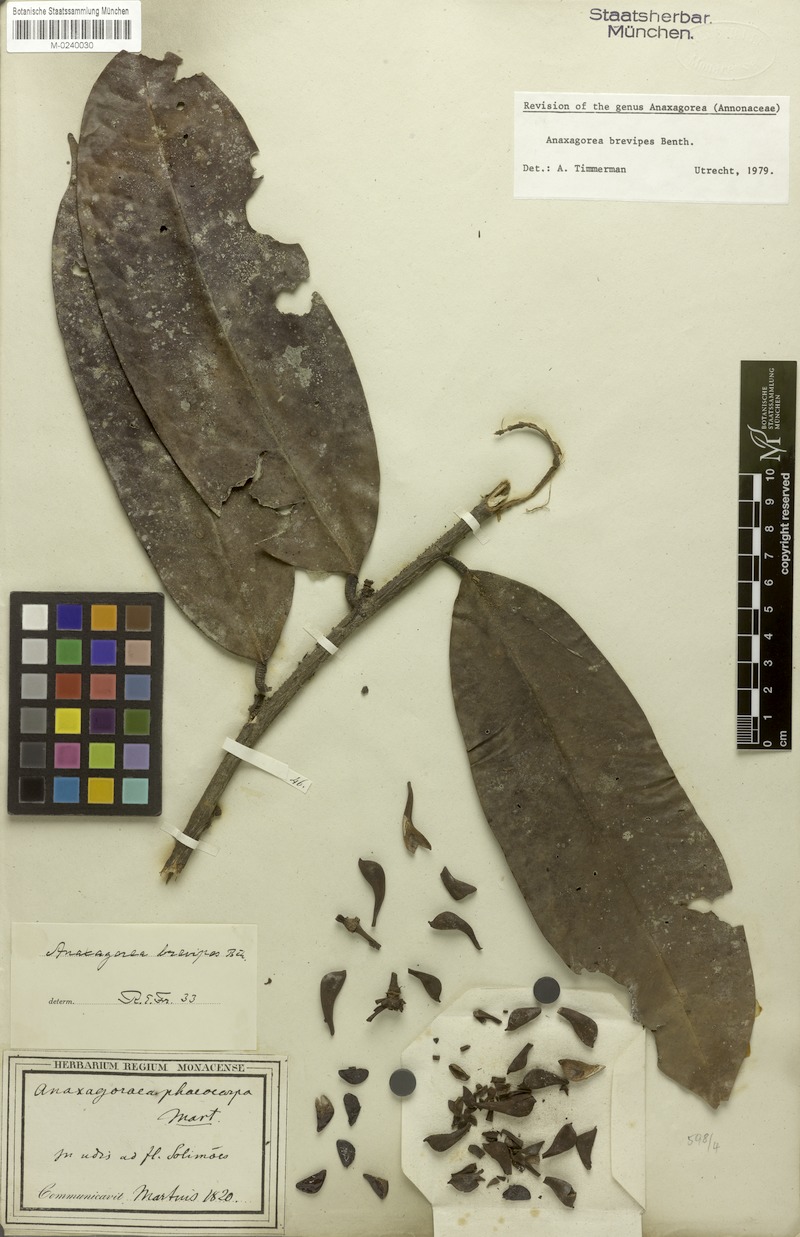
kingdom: Plantae
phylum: Tracheophyta
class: Magnoliopsida
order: Magnoliales
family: Annonaceae
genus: Anaxagorea
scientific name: Anaxagorea brevipes
